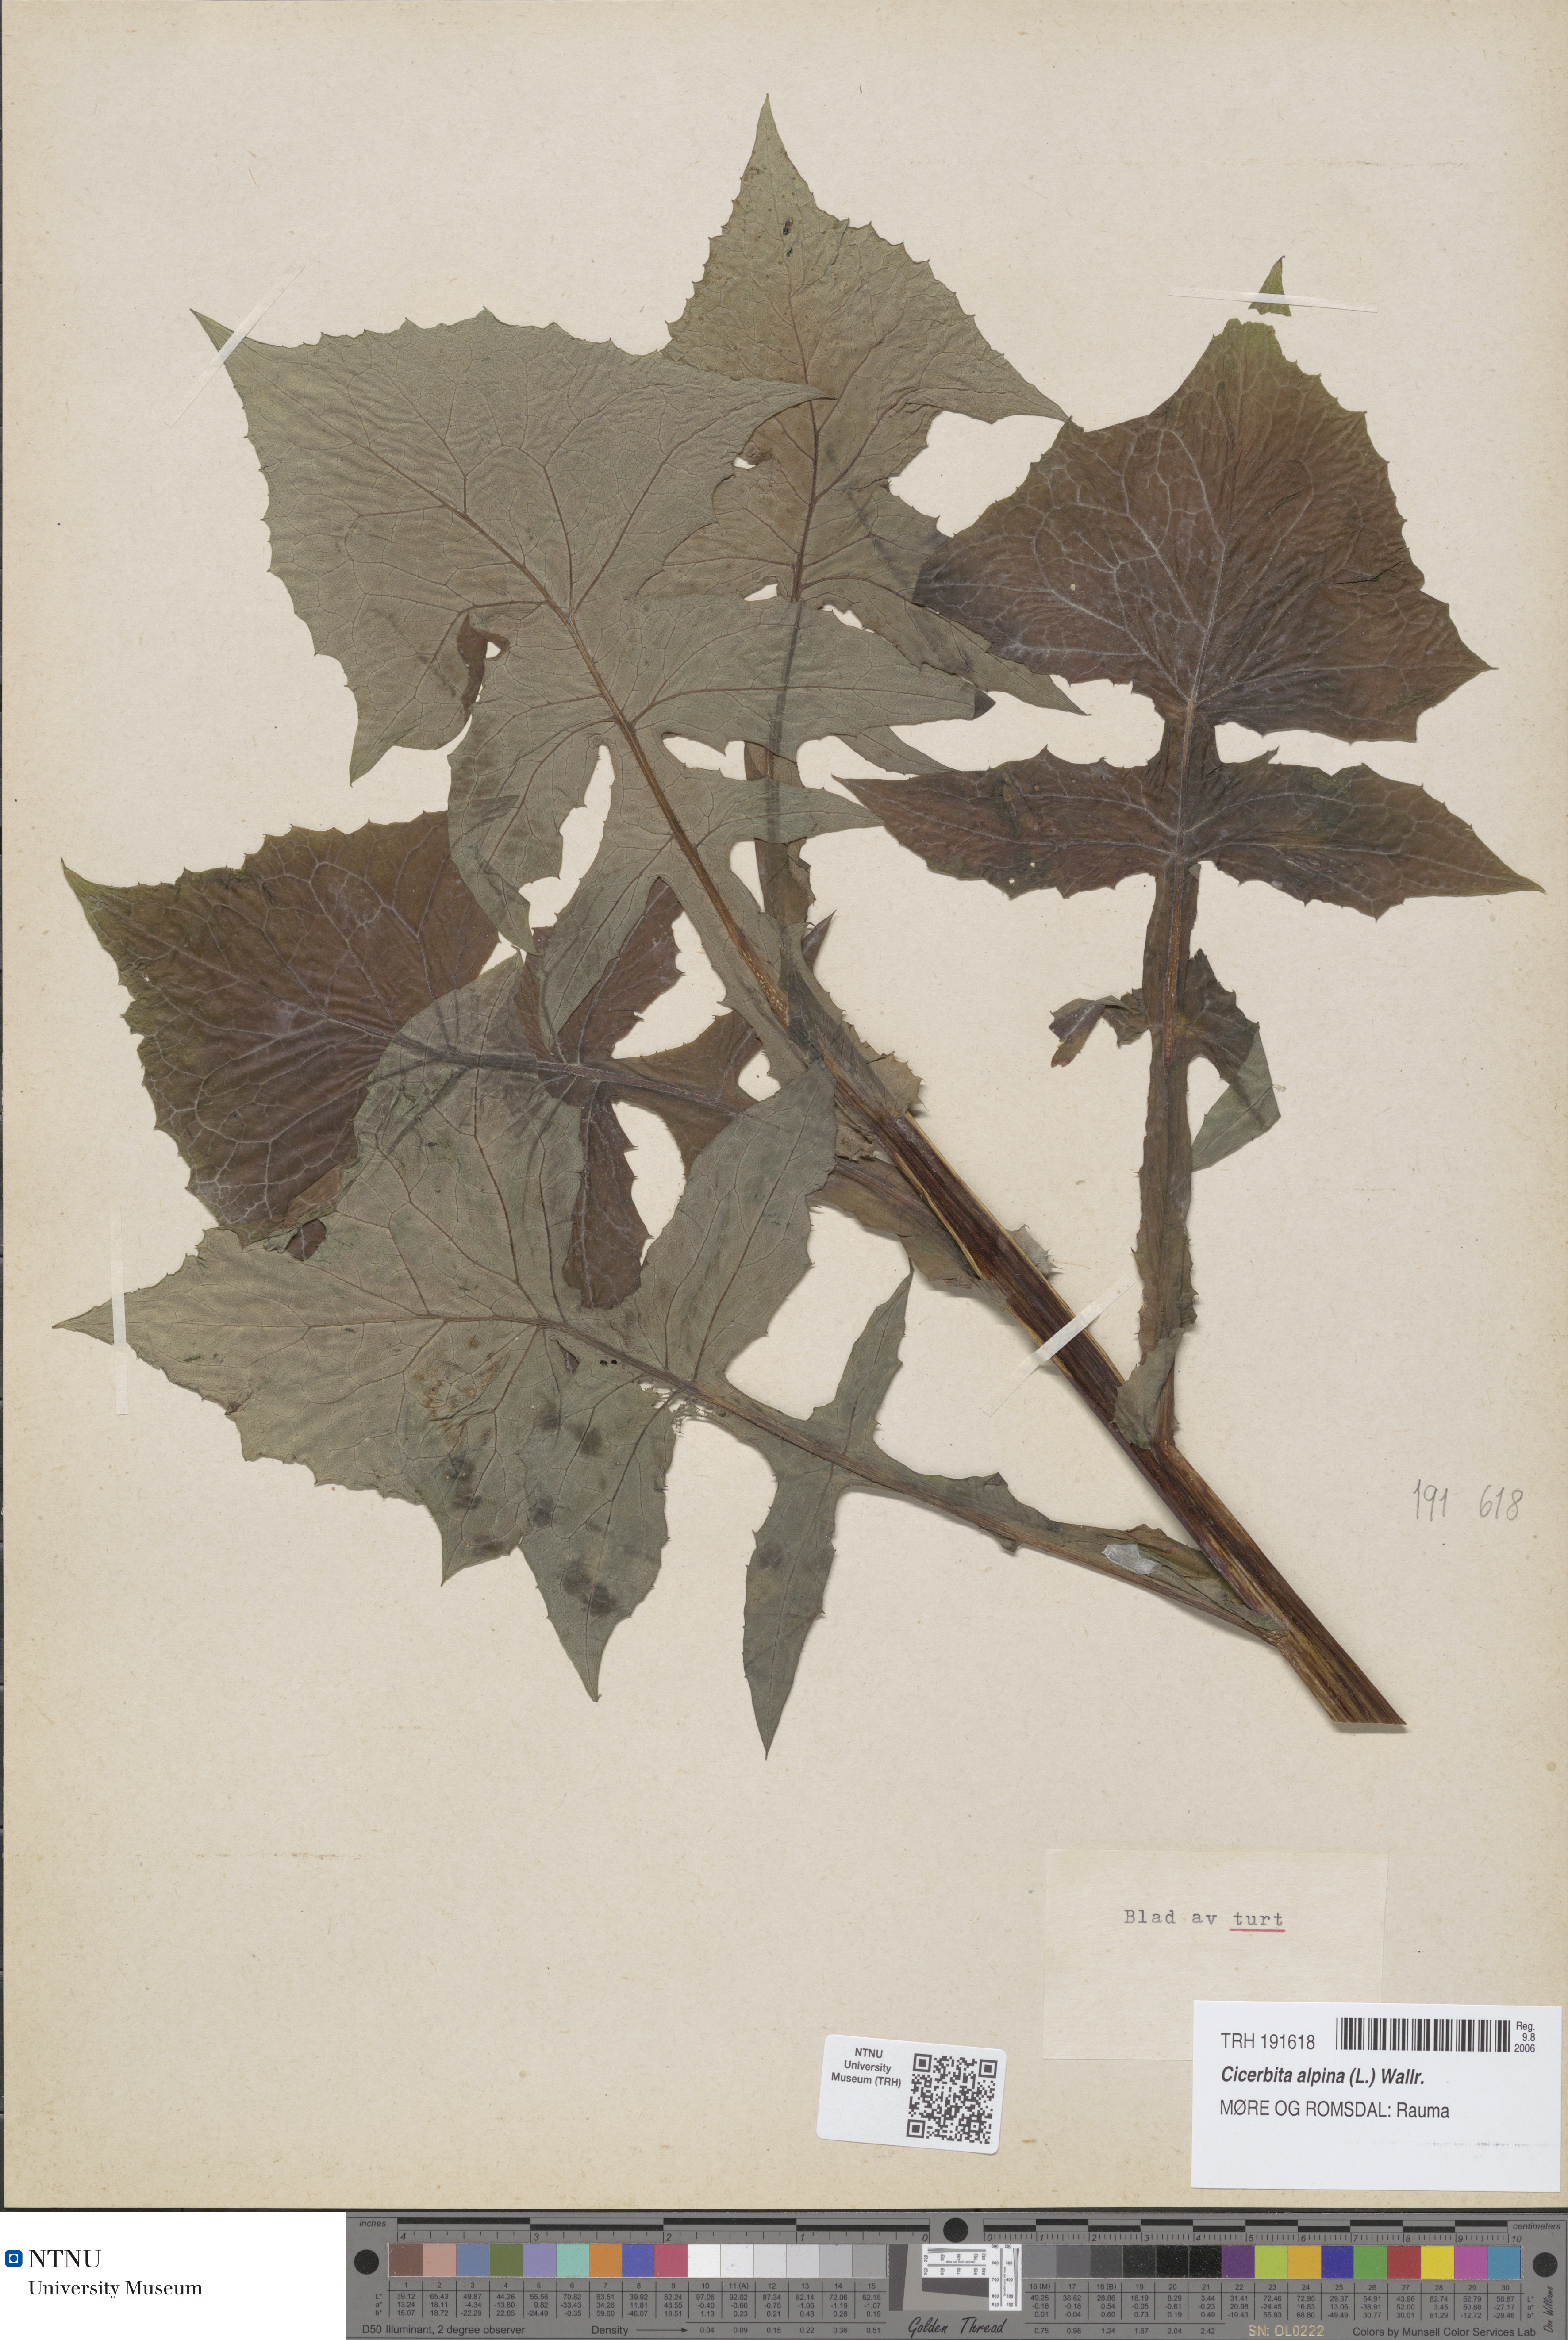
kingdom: Plantae
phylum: Tracheophyta
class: Magnoliopsida
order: Asterales
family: Asteraceae
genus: Cicerbita
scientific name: Cicerbita alpina
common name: Alpine blue-sow-thistle
